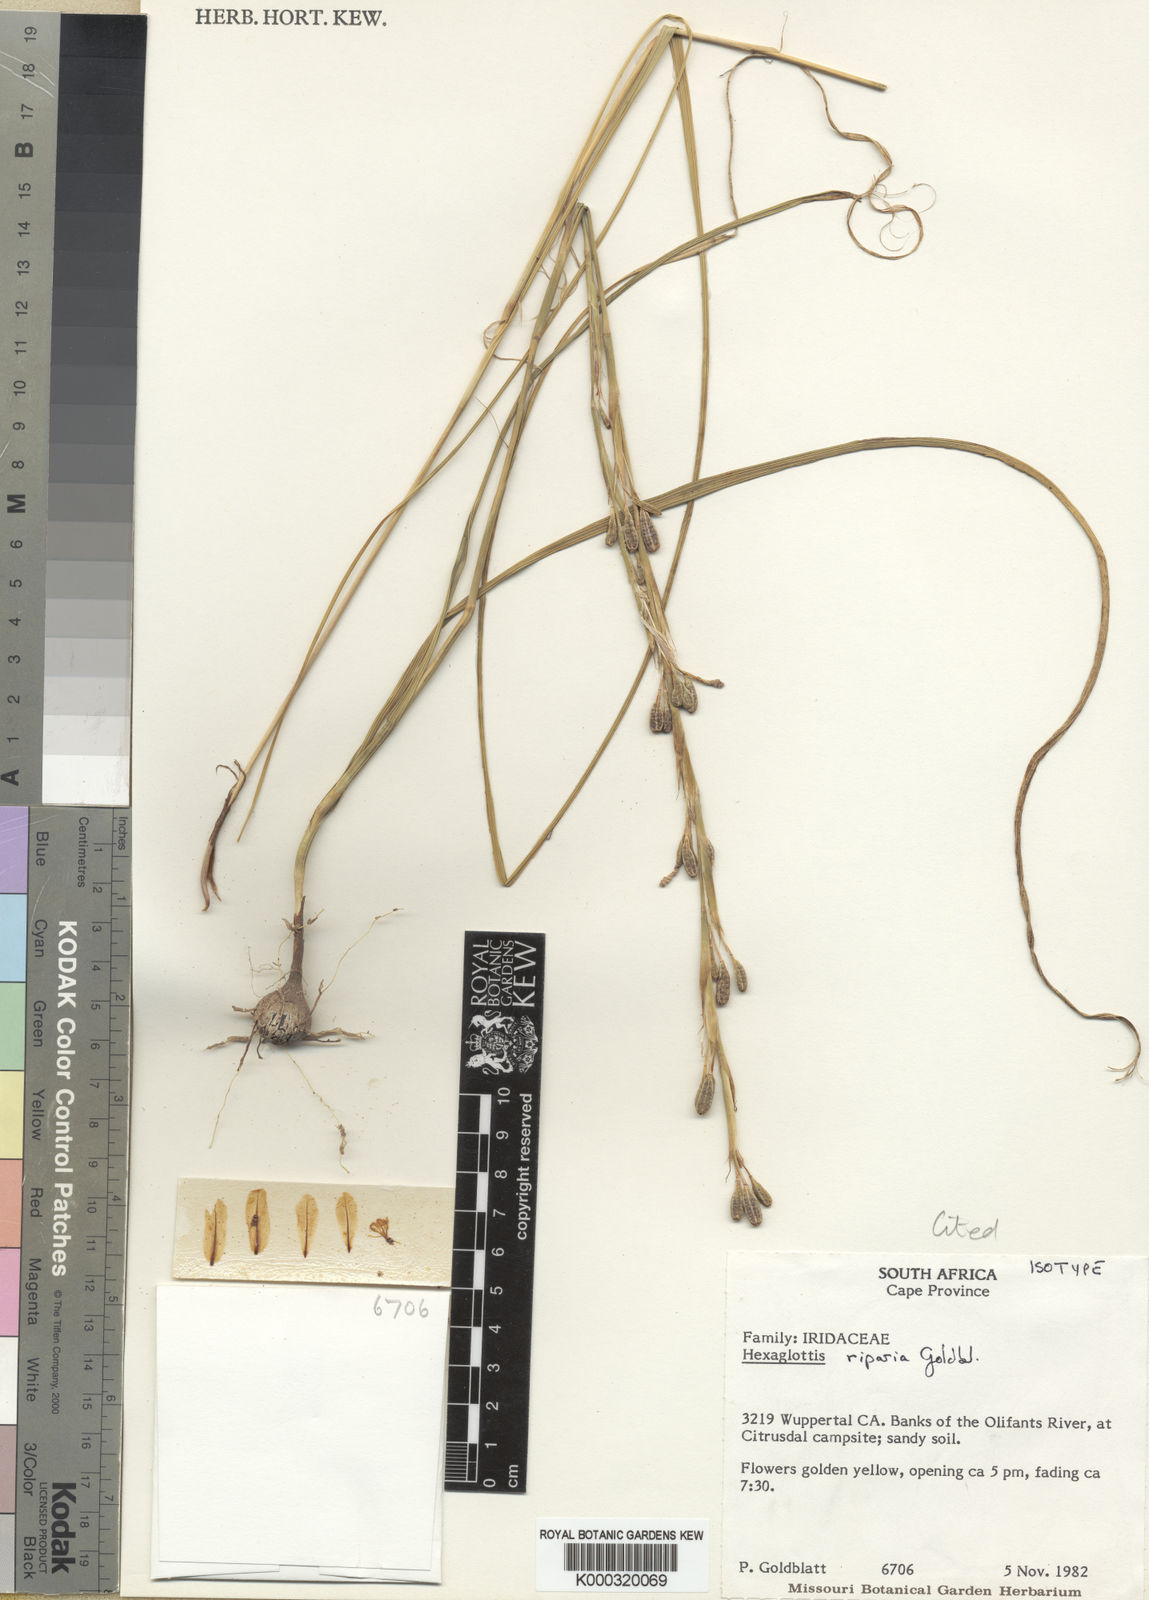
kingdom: Plantae
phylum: Tracheophyta
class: Liliopsida
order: Asparagales
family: Iridaceae
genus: Moraea
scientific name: Moraea riparia
